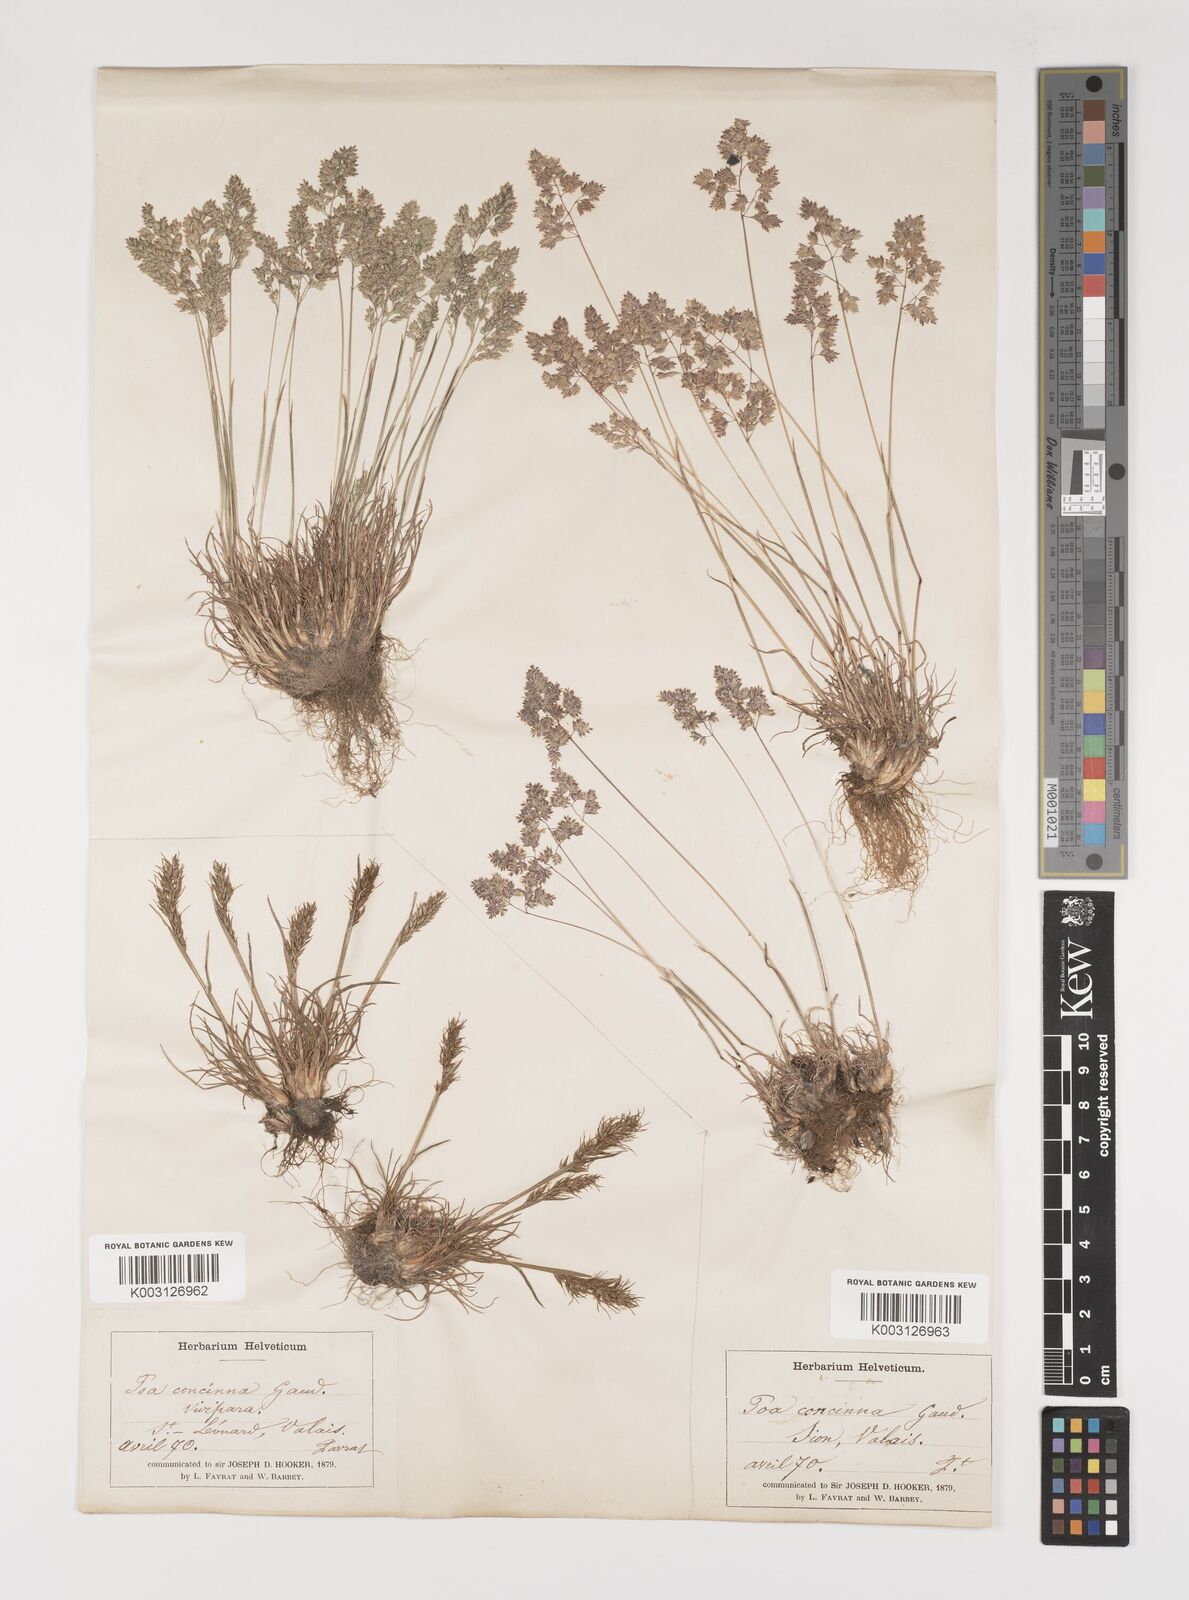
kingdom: Plantae
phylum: Tracheophyta
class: Liliopsida
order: Poales
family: Poaceae
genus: Poa
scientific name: Poa perconcinna
